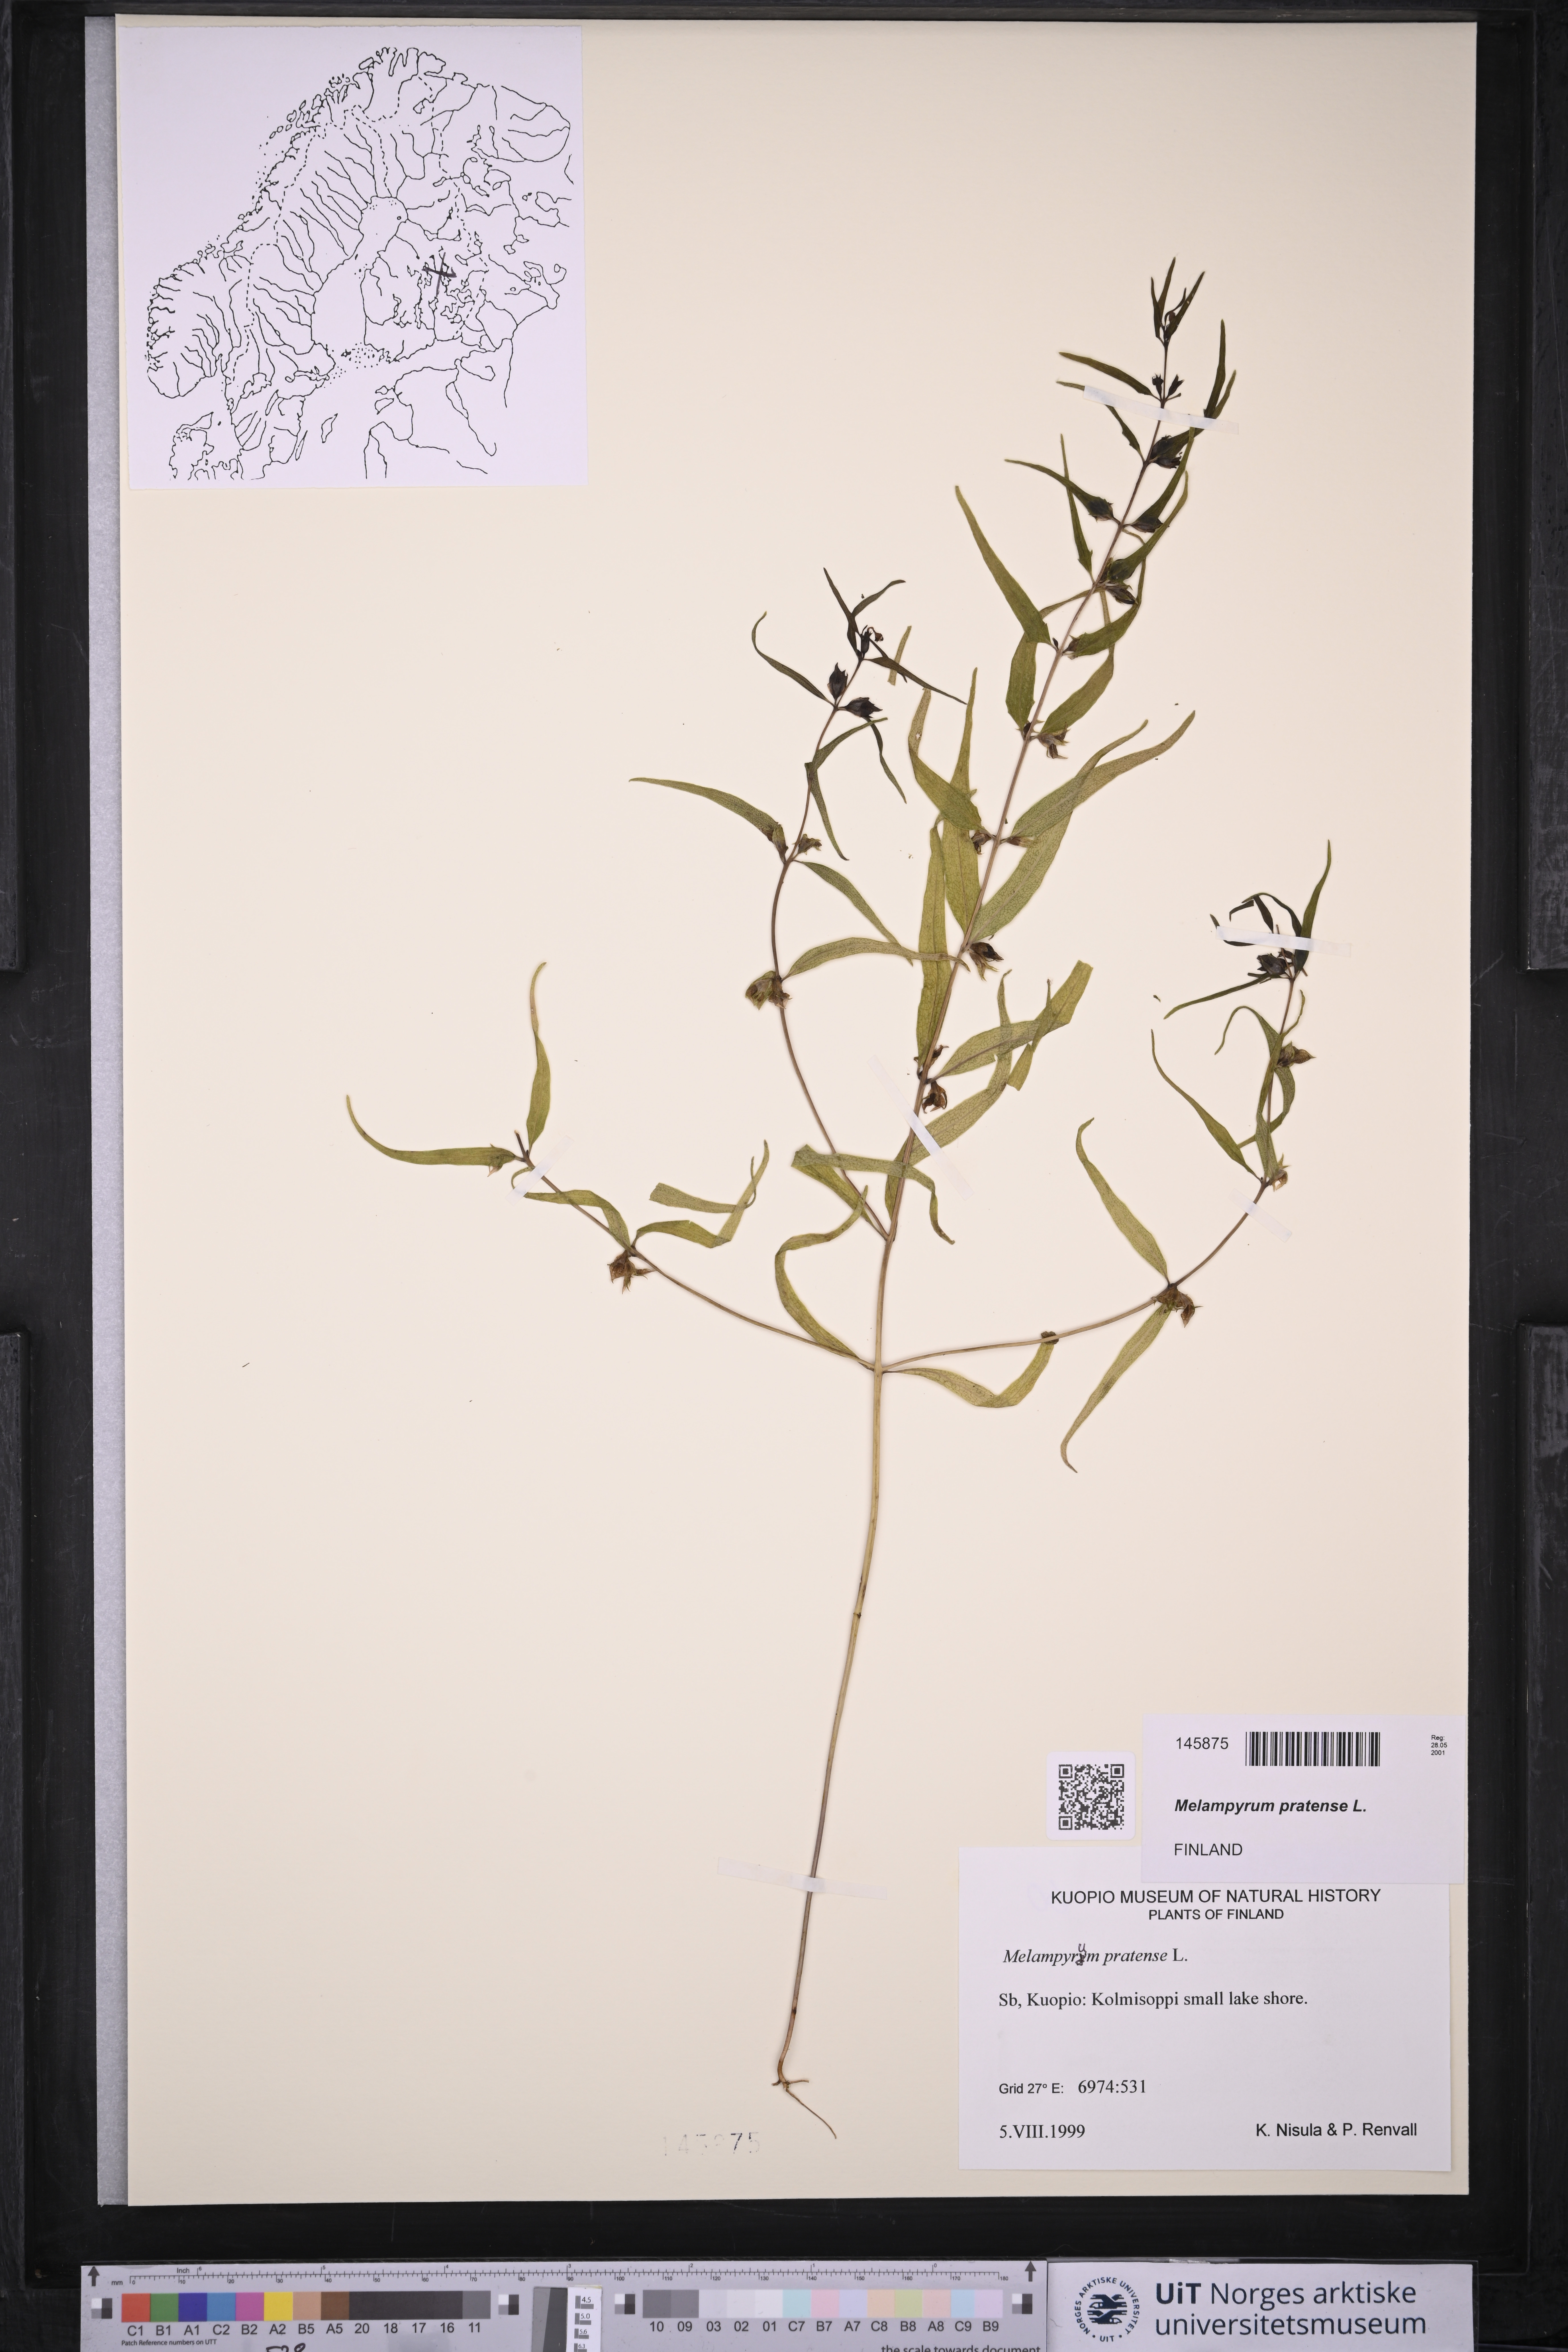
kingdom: Plantae
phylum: Tracheophyta
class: Magnoliopsida
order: Lamiales
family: Orobanchaceae
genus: Melampyrum
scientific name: Melampyrum pratense
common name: Common cow-wheat
